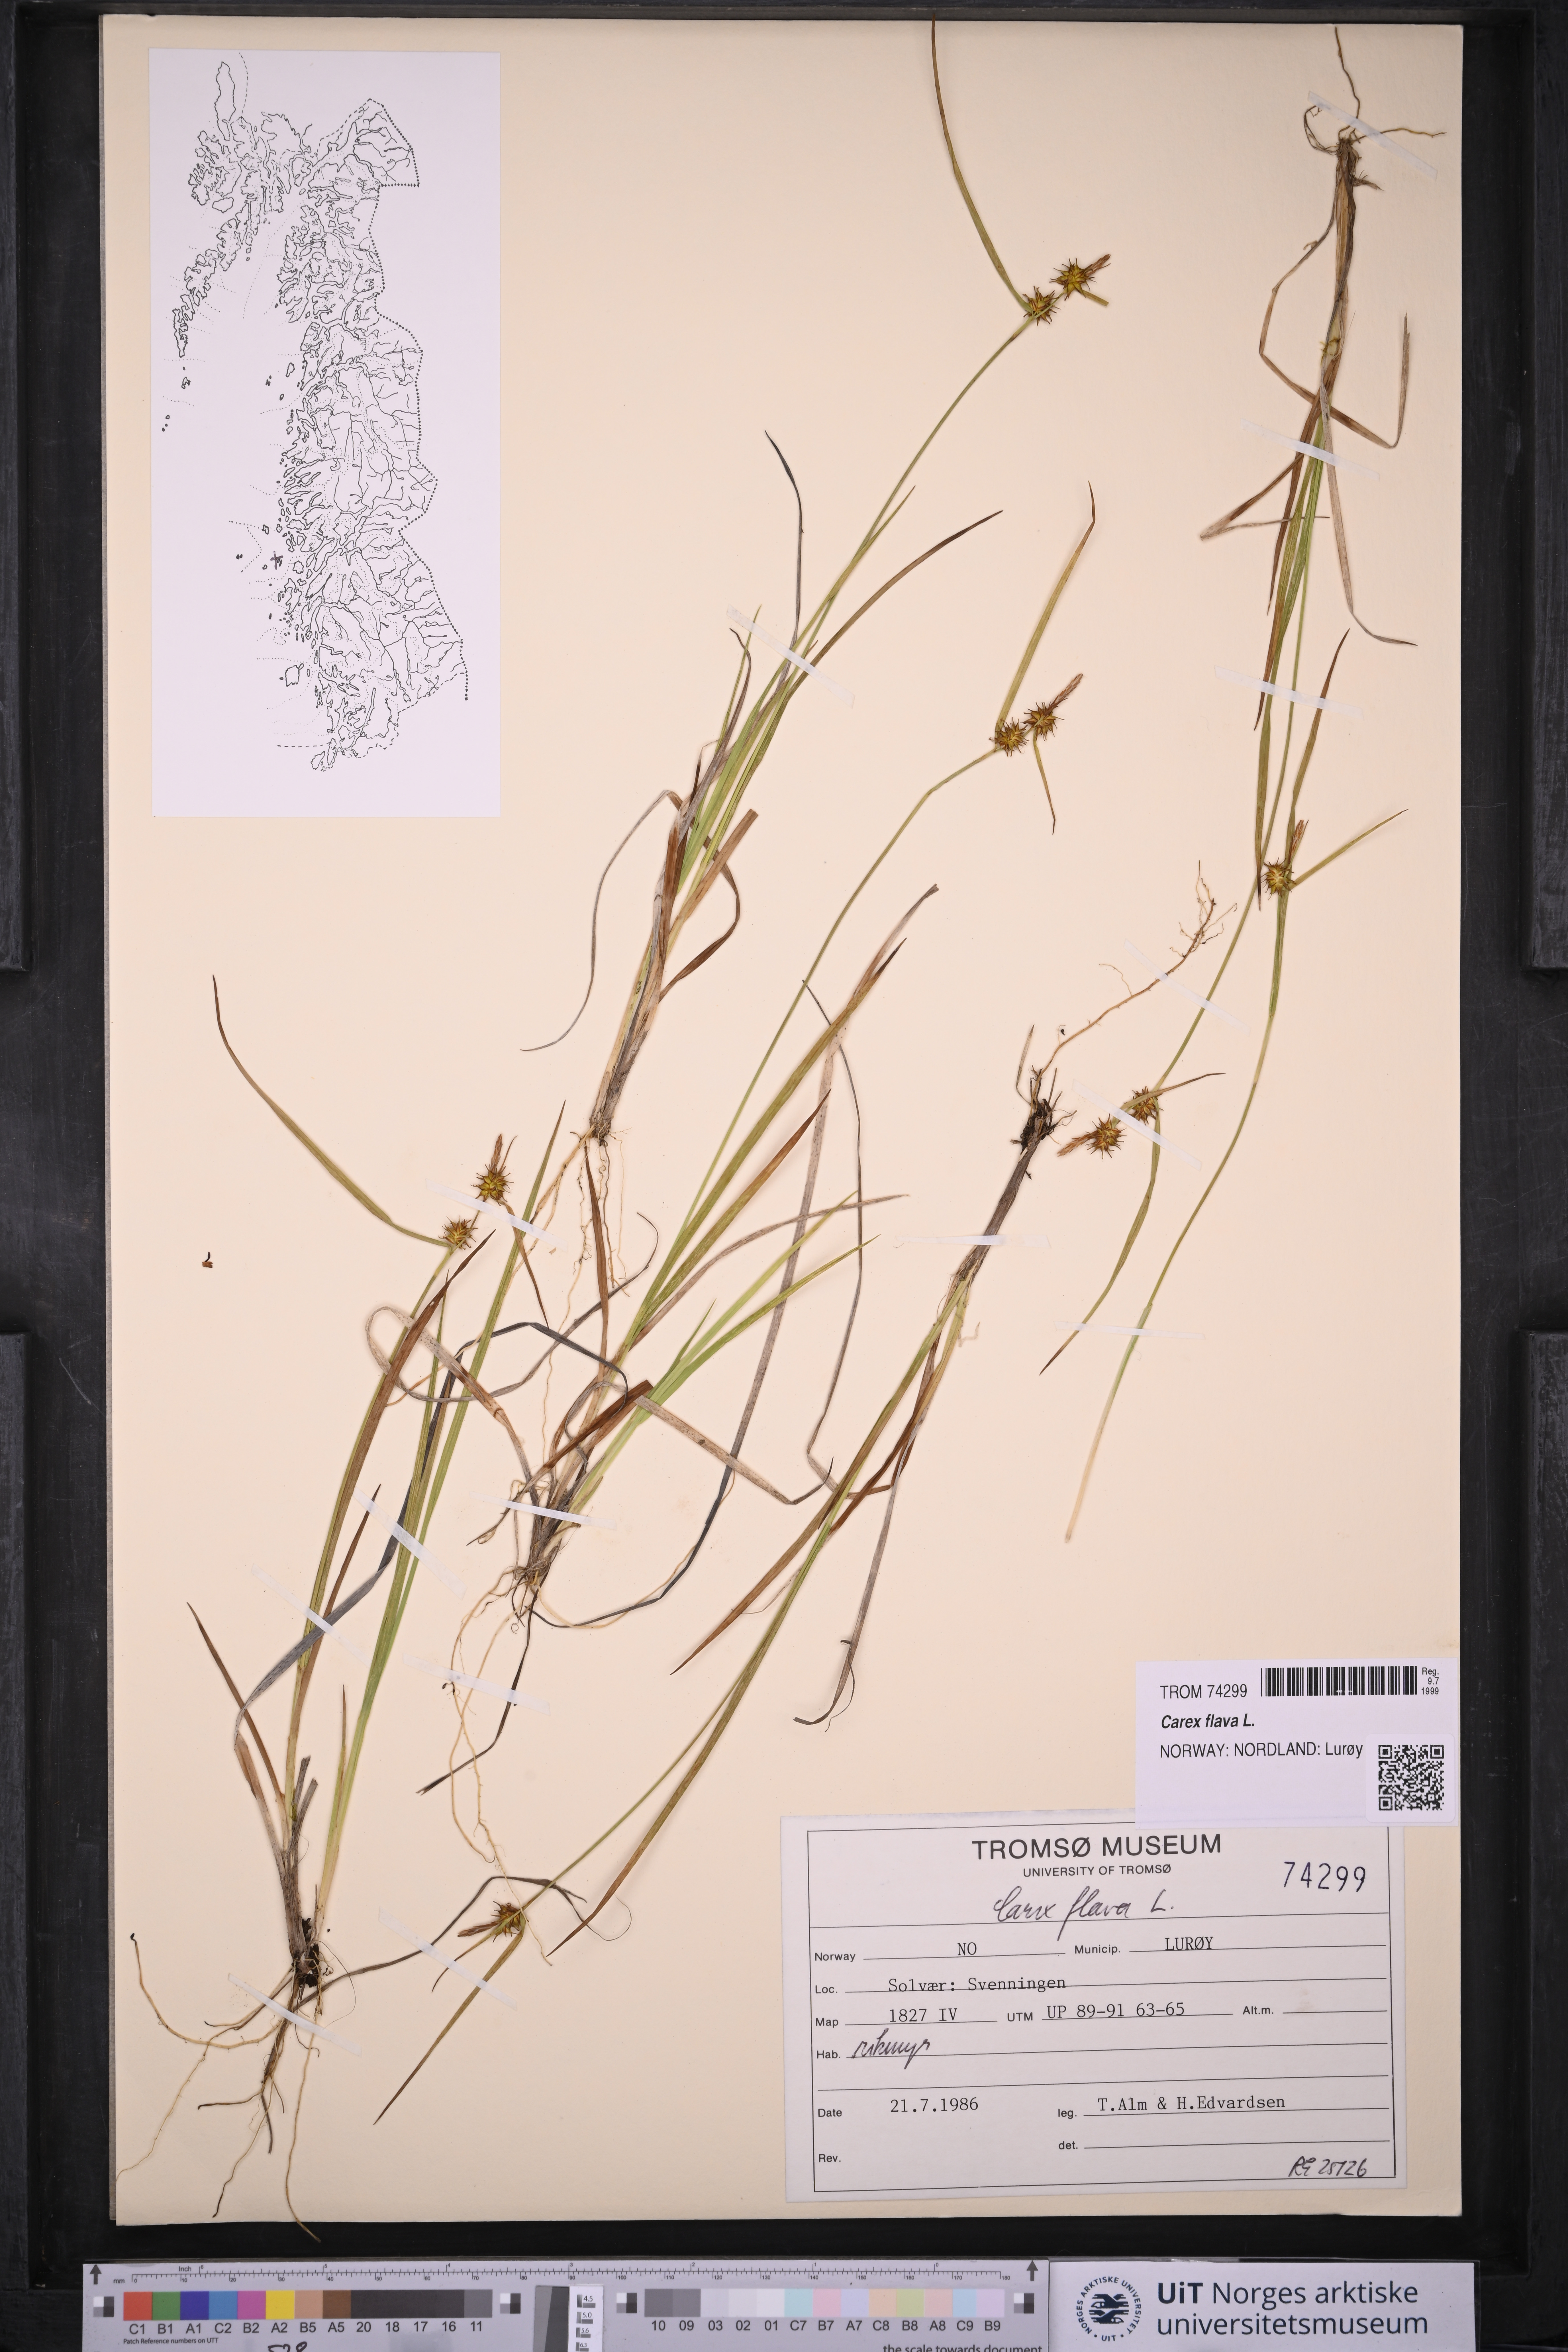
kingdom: Plantae
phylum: Tracheophyta
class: Liliopsida
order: Poales
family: Cyperaceae
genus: Carex
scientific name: Carex flava
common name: Large yellow-sedge
